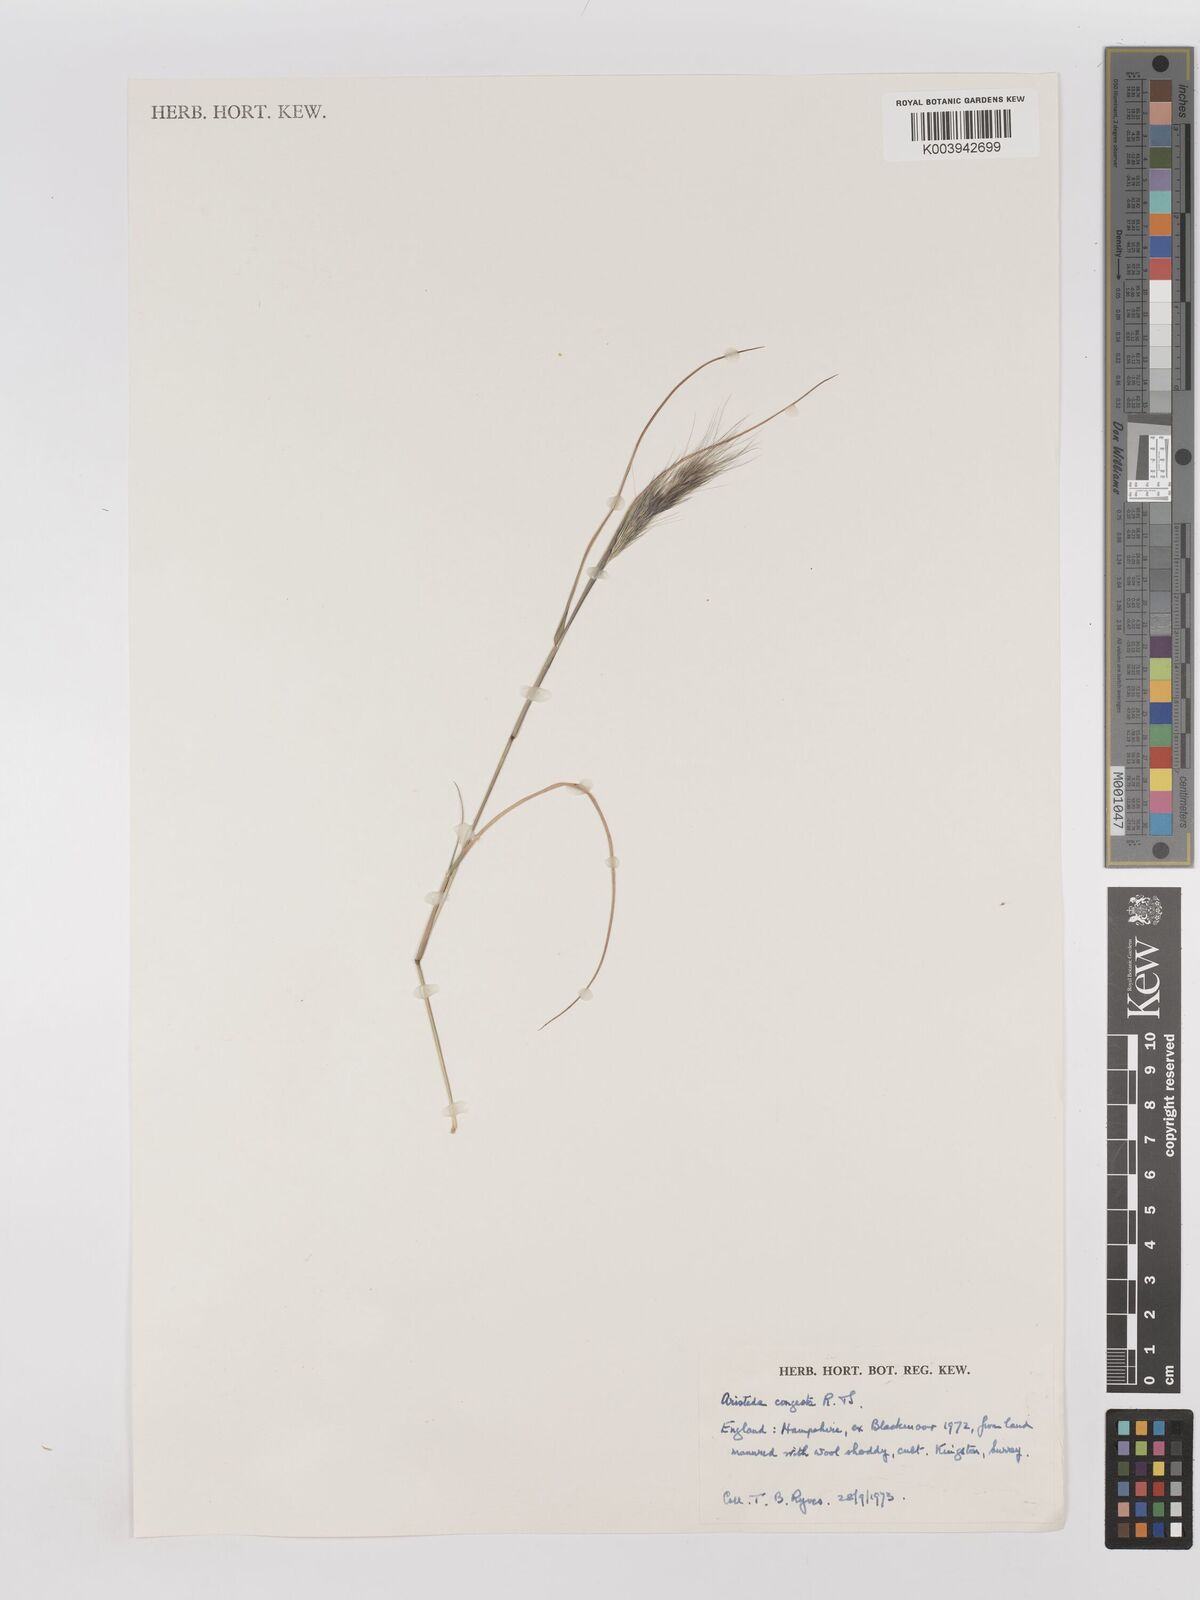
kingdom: Plantae
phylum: Tracheophyta
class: Liliopsida
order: Poales
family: Poaceae
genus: Aristida
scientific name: Aristida congesta
